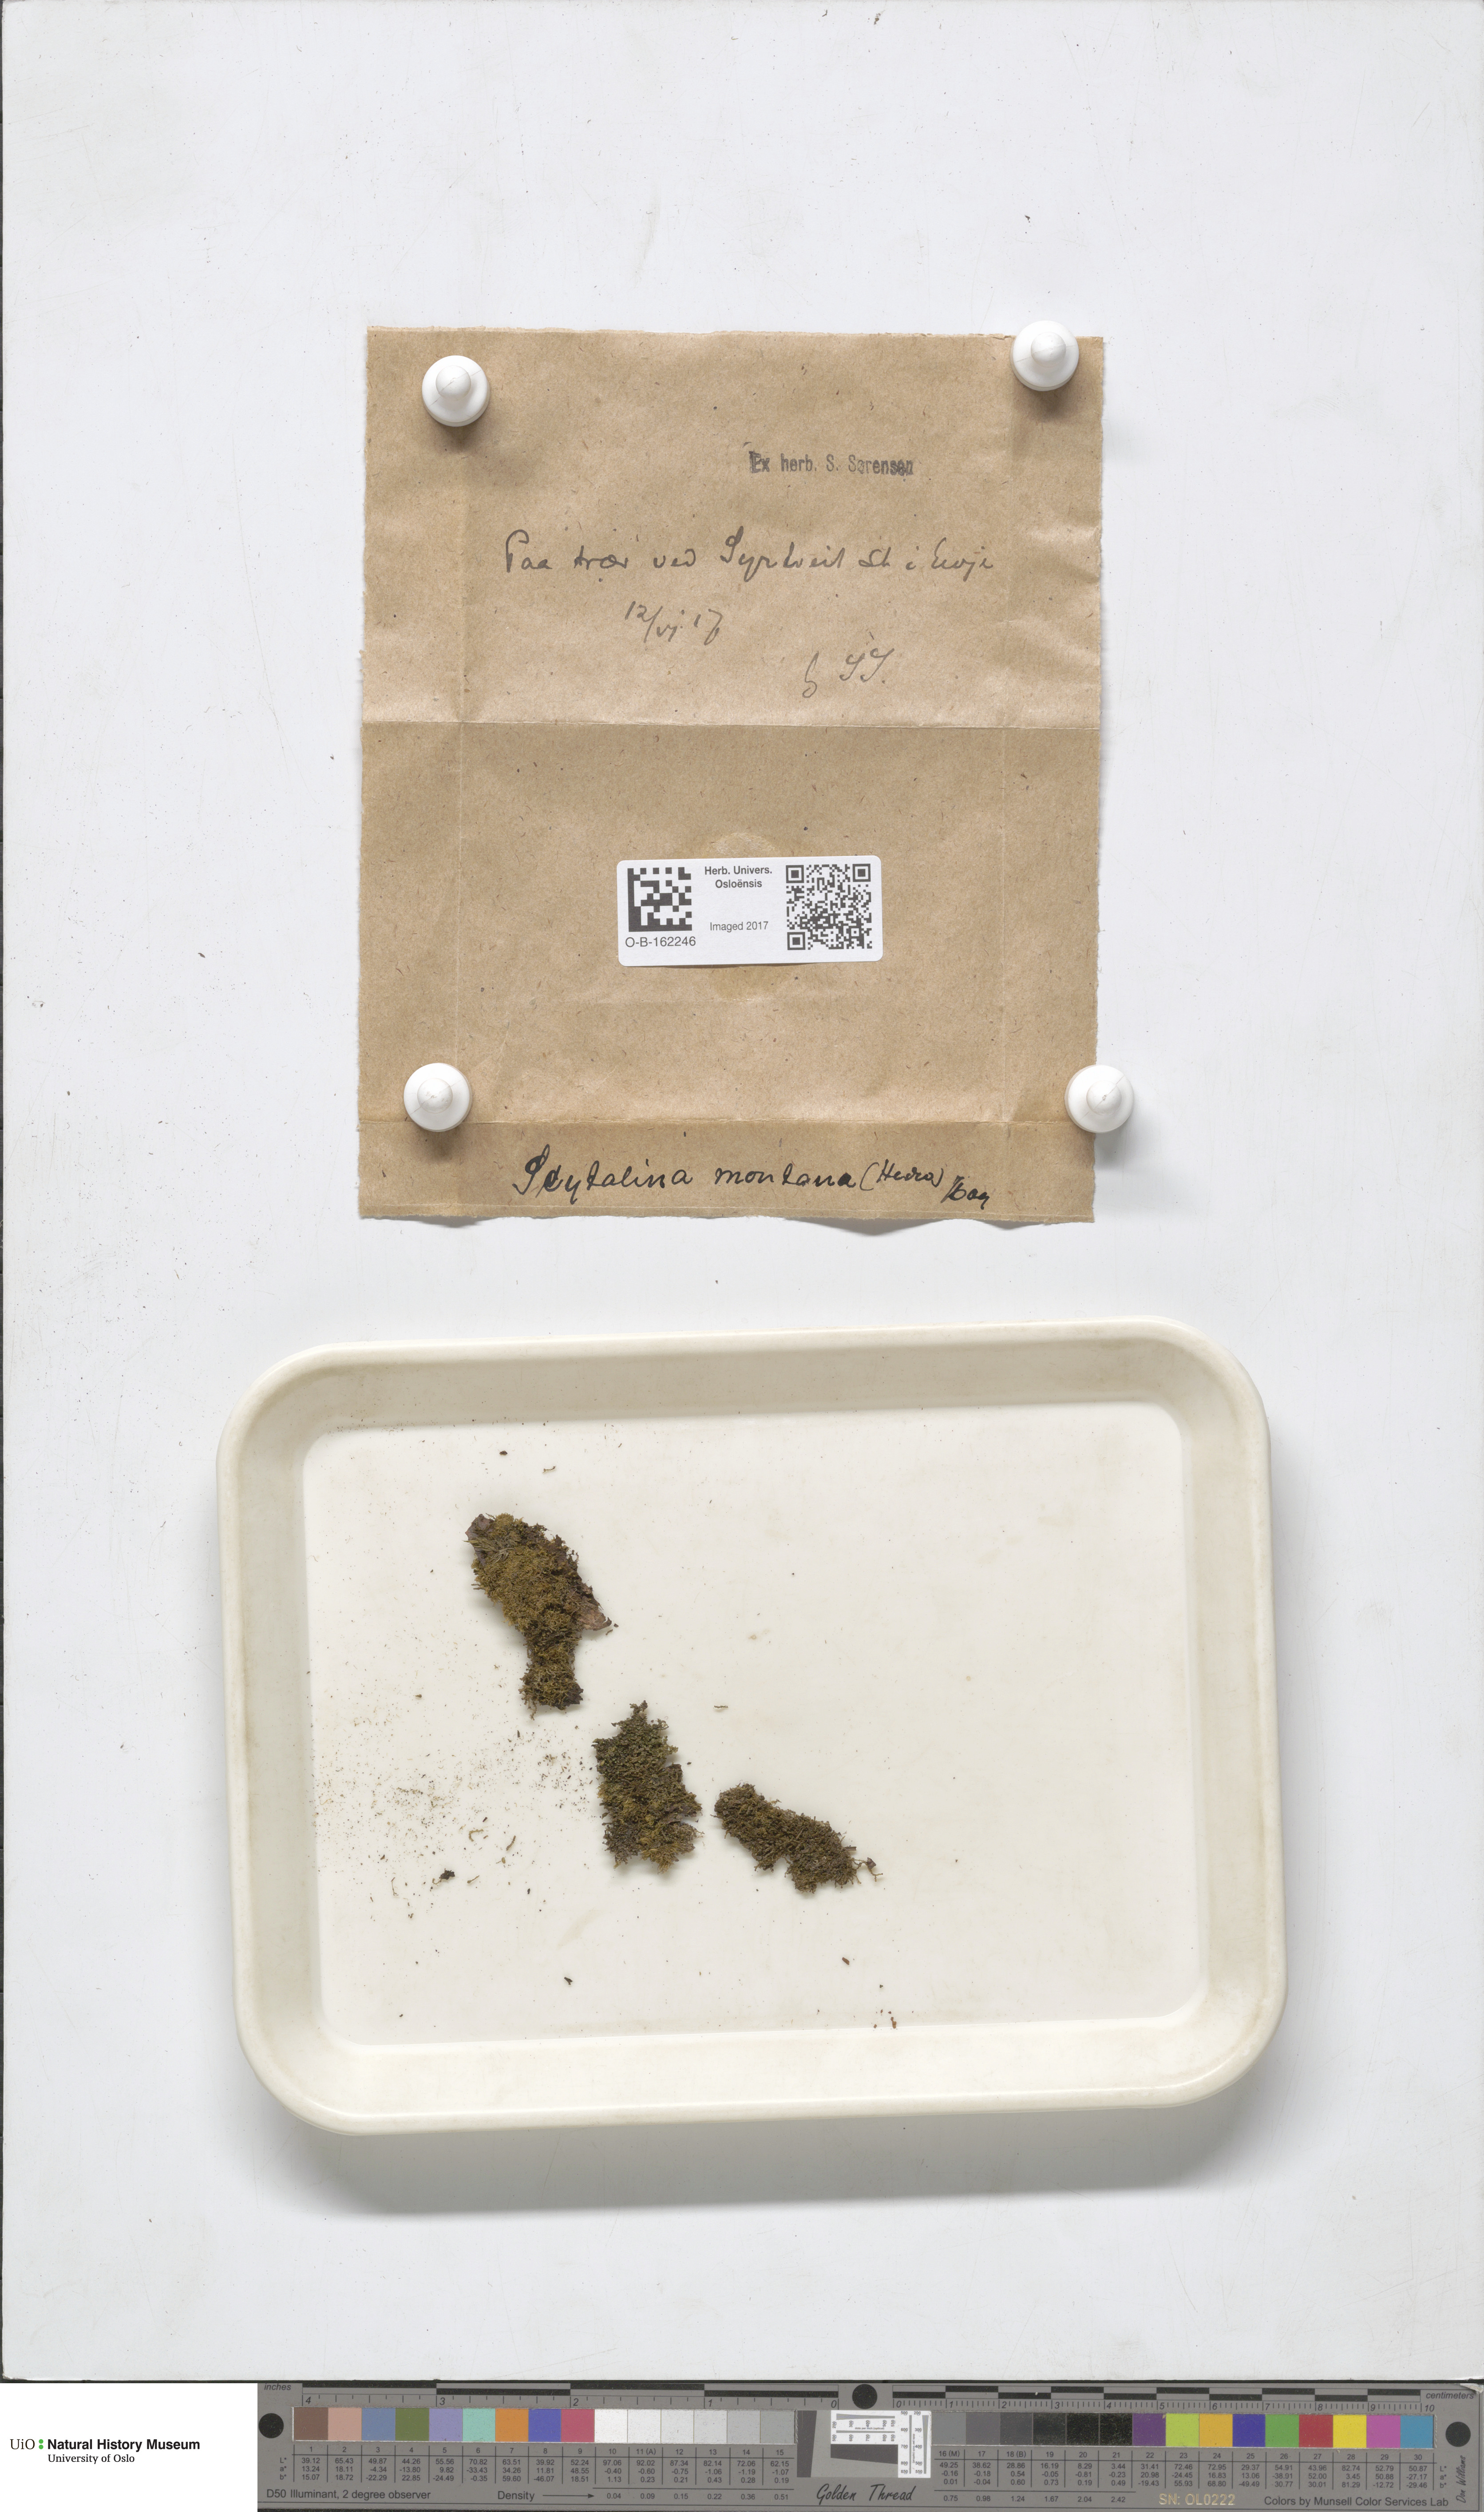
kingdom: Plantae
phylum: Bryophyta
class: Bryopsida
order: Dicranales
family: Dicranaceae
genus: Orthodicranum
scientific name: Orthodicranum montanum
